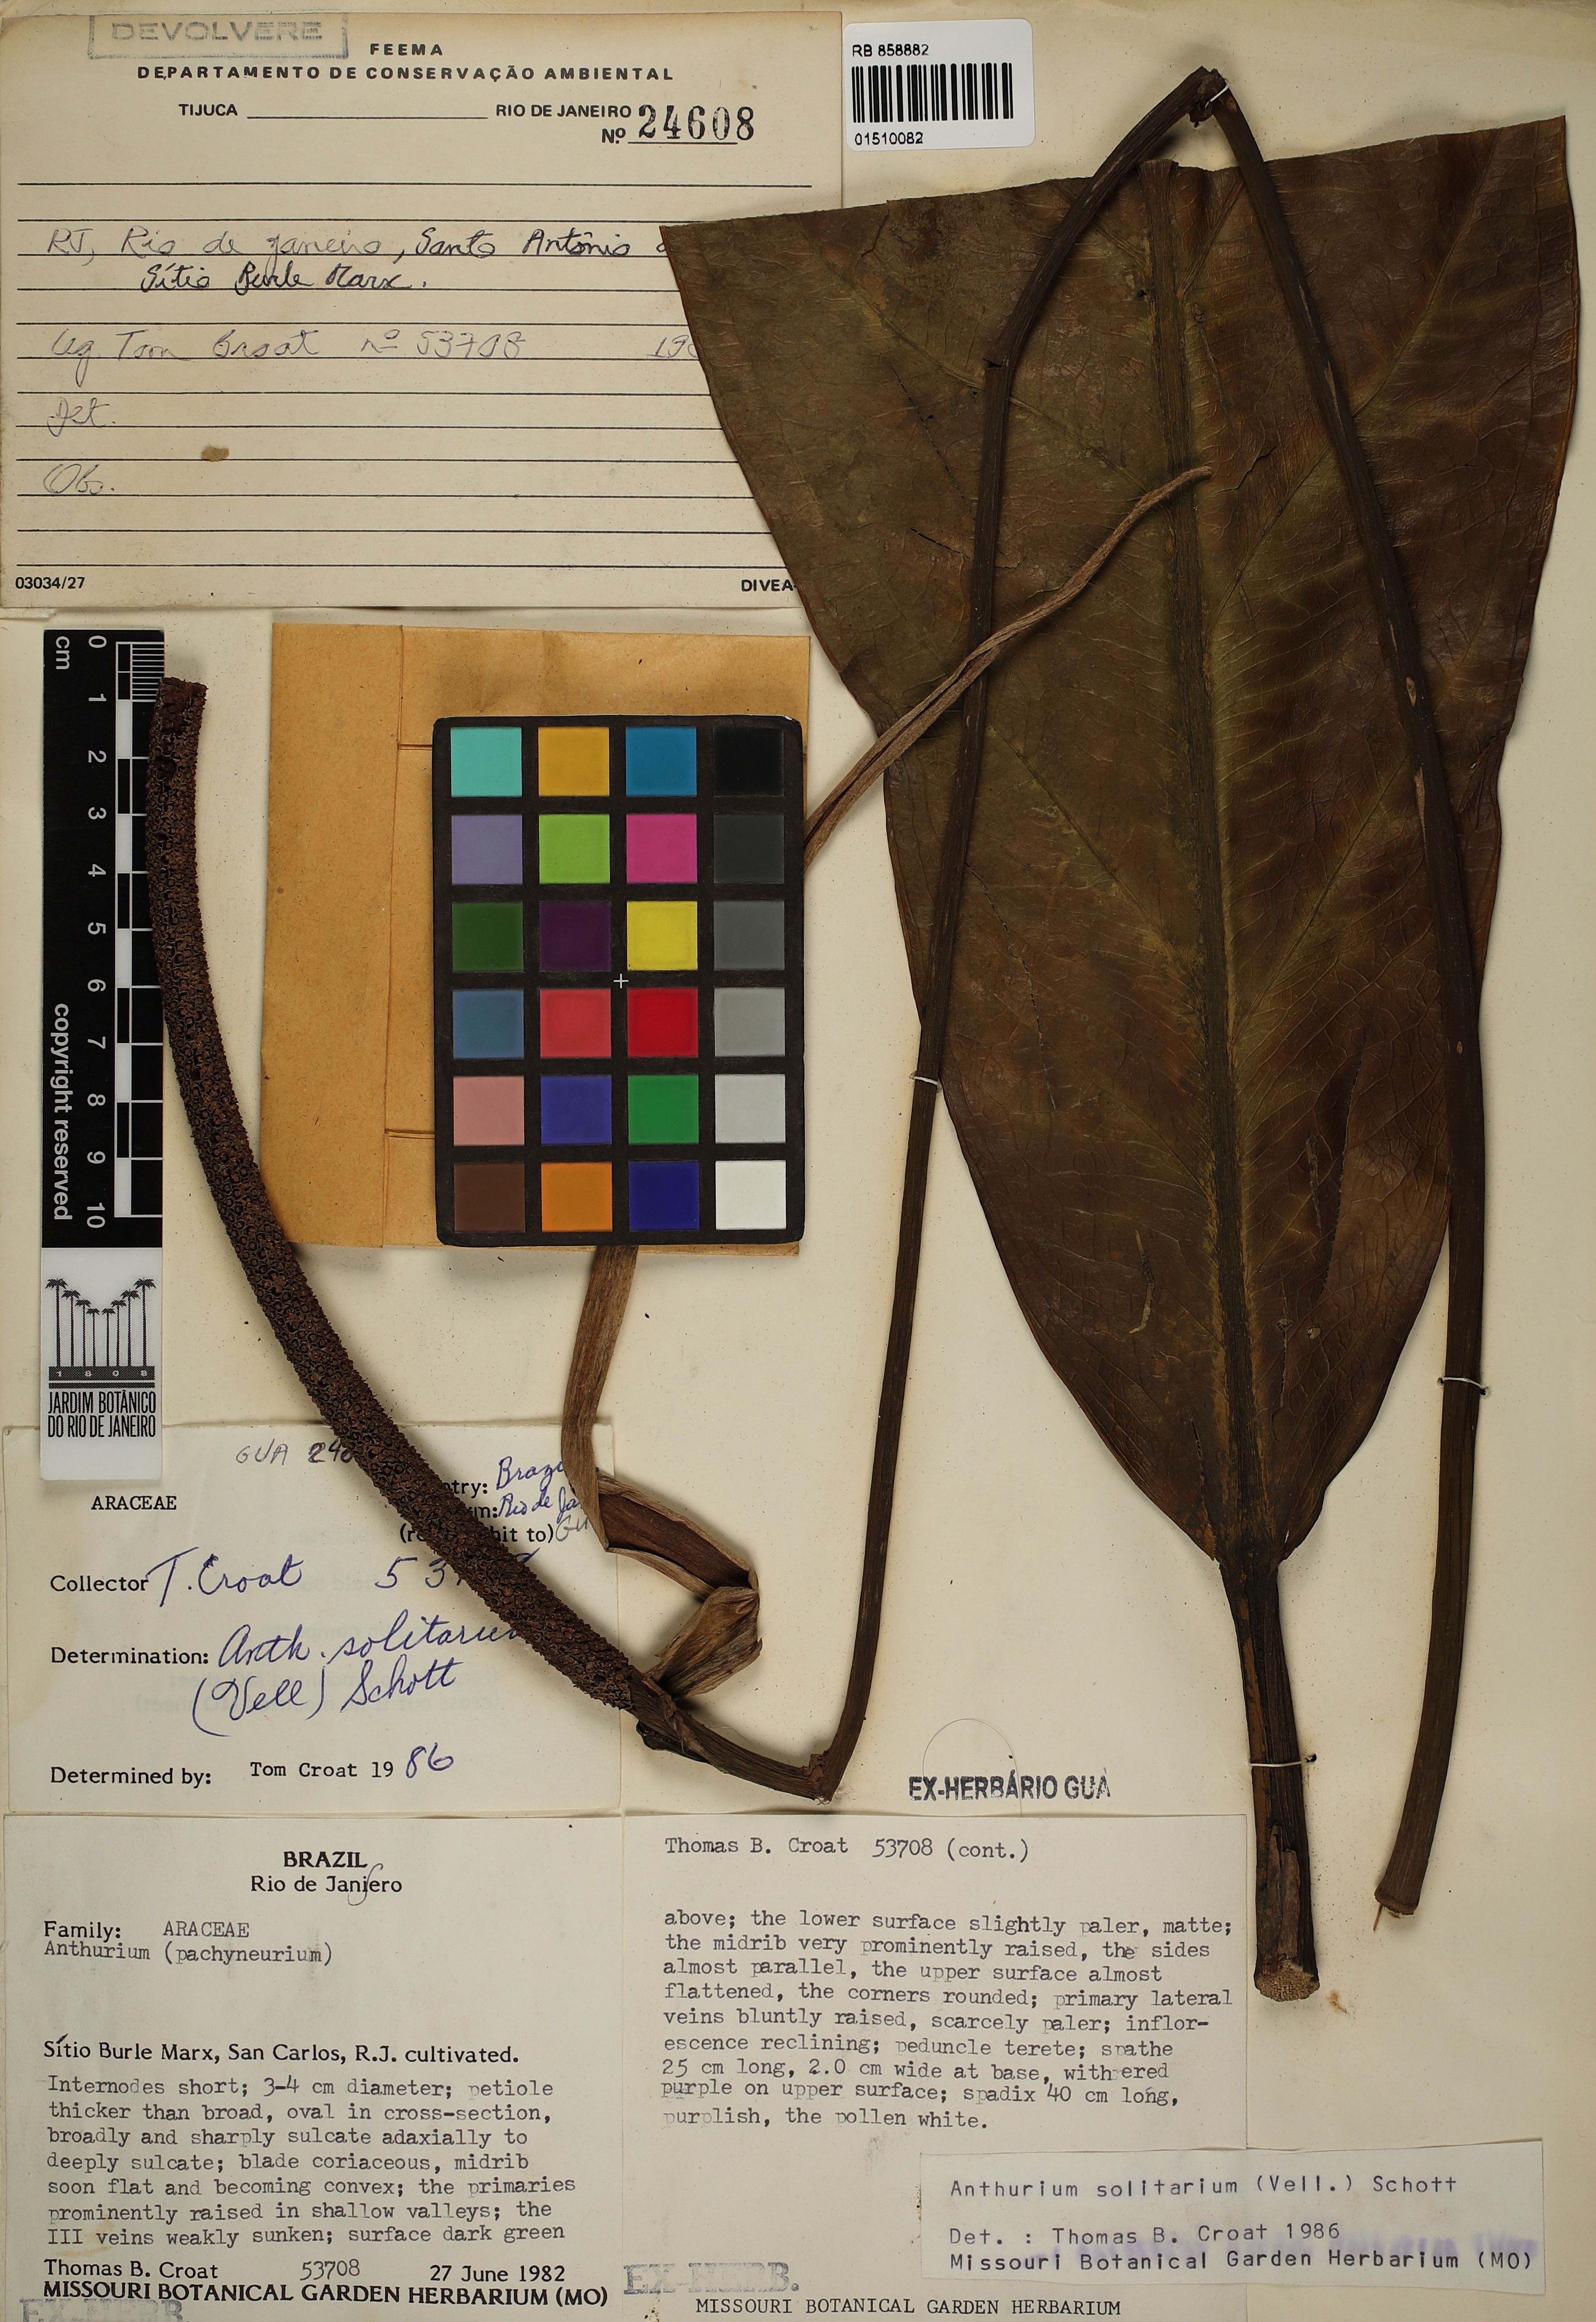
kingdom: Plantae
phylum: Tracheophyta
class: Liliopsida
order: Alismatales
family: Araceae
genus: Anthurium
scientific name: Anthurium solitarium
